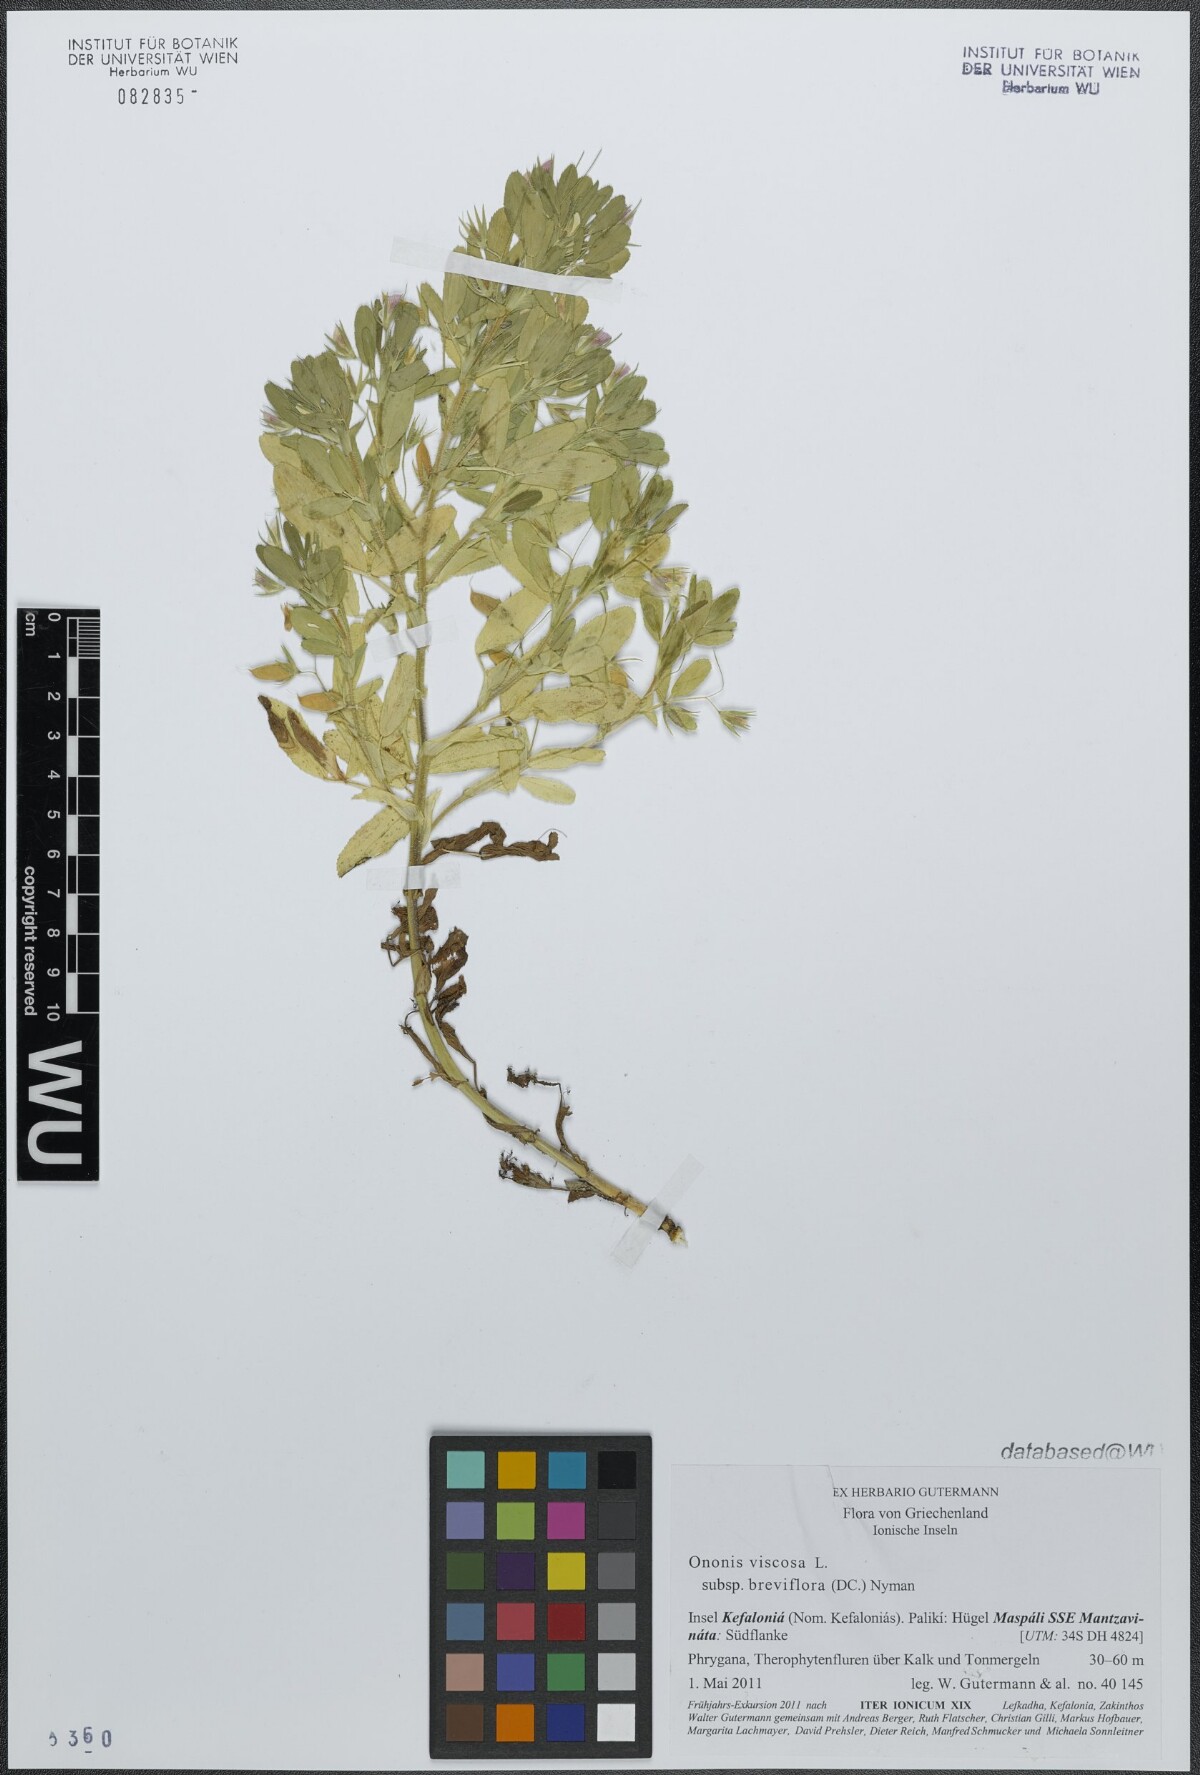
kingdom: Plantae
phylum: Tracheophyta
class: Magnoliopsida
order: Fabales
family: Fabaceae
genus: Ononis
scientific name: Ononis viscosa
